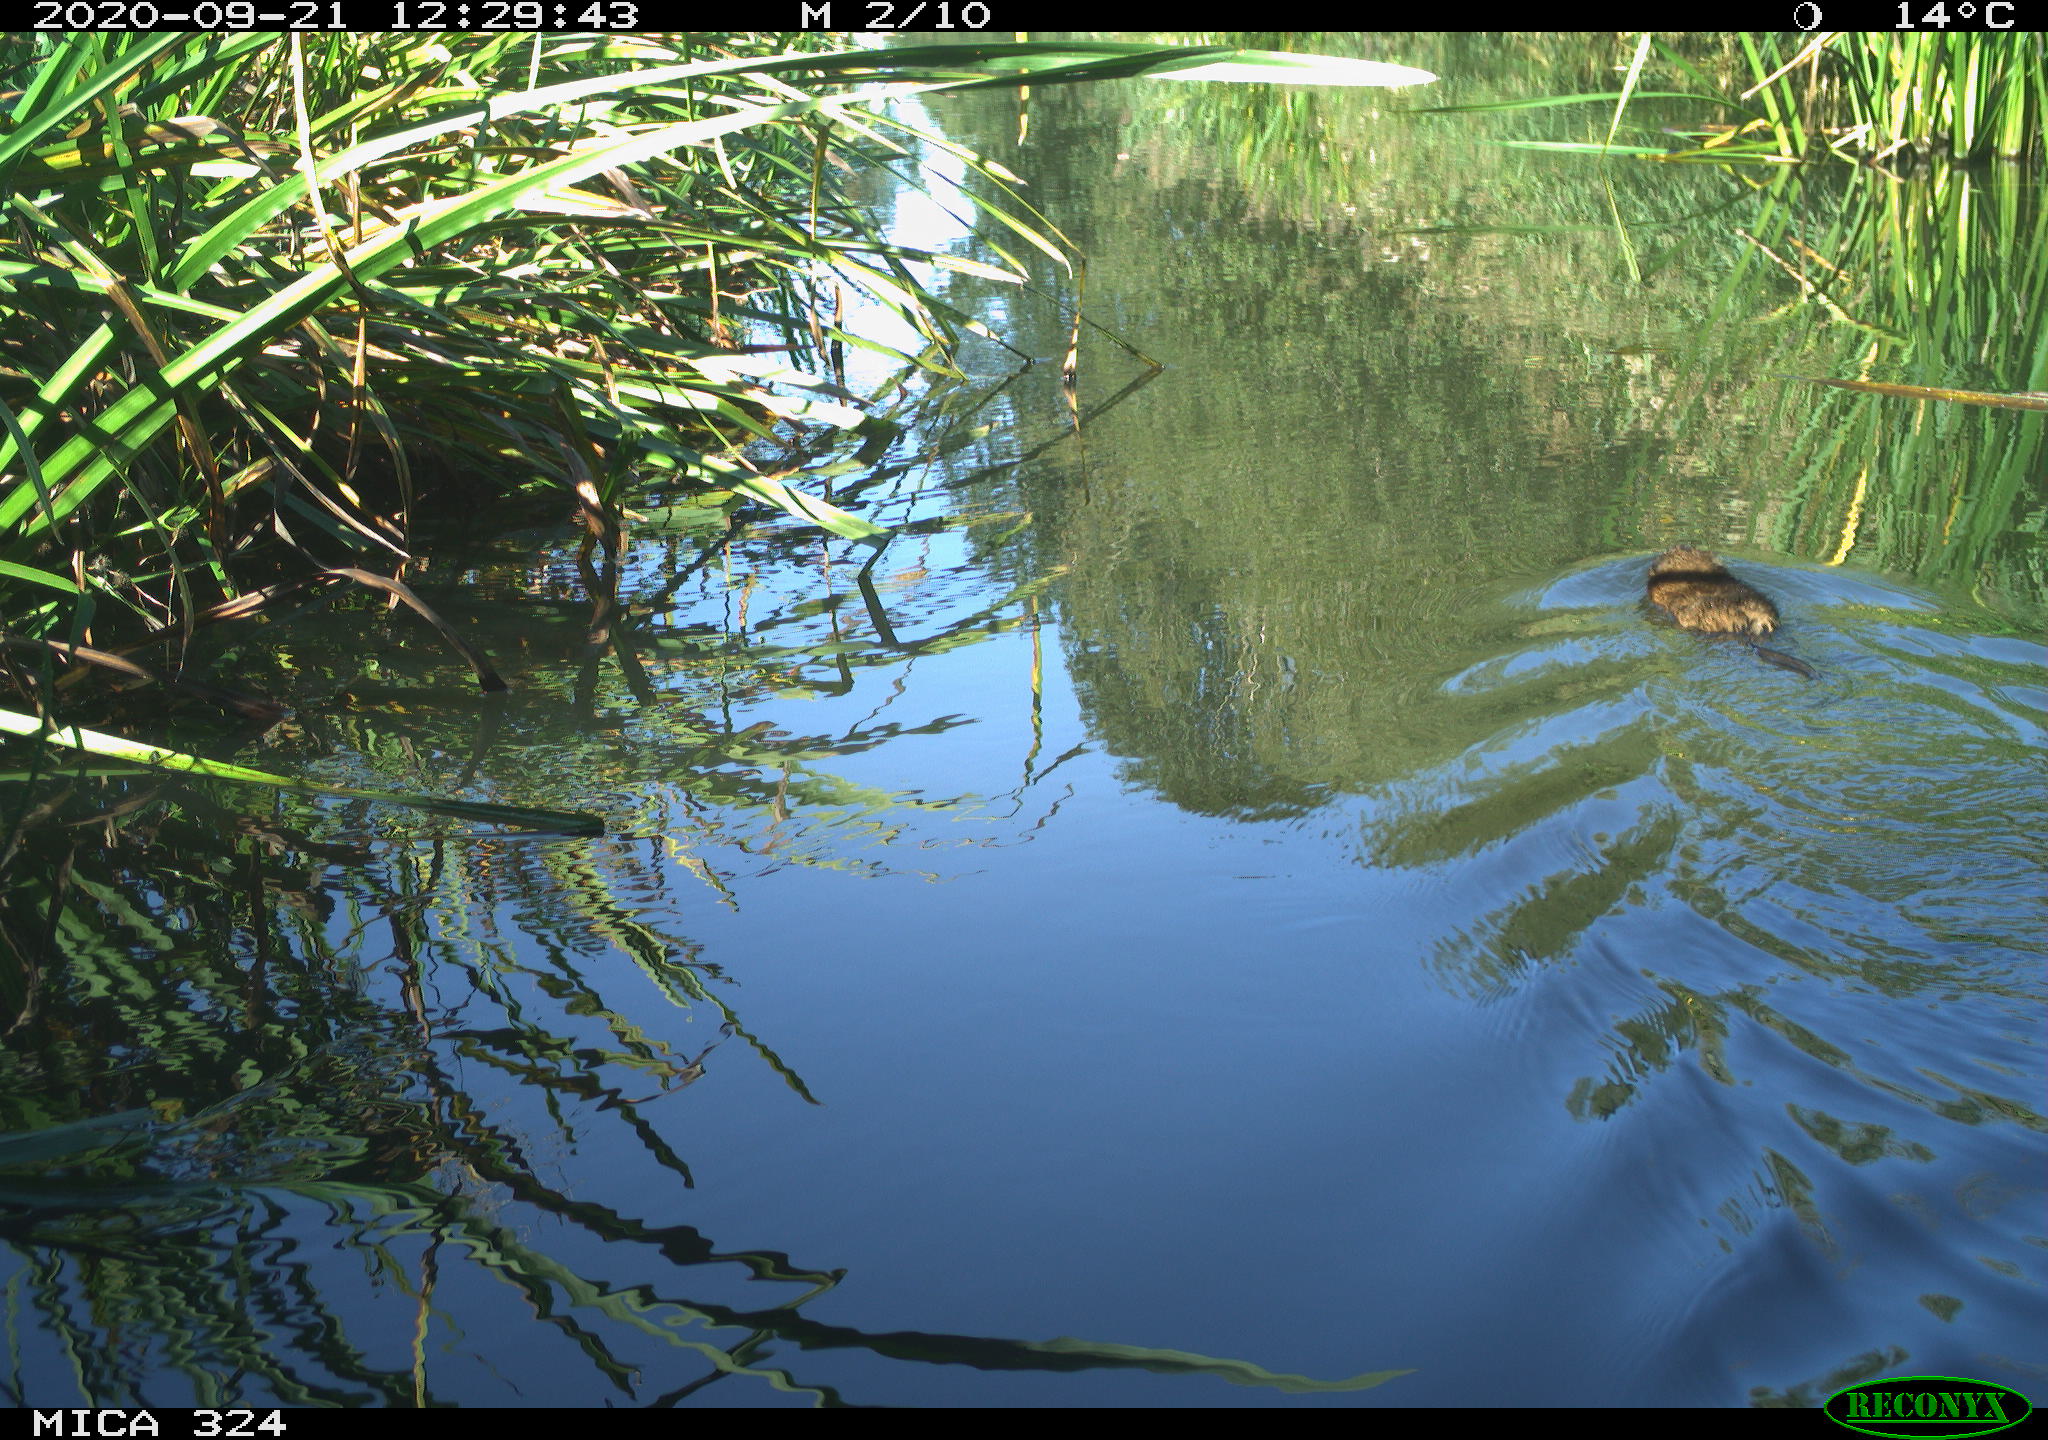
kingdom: Animalia
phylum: Chordata
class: Mammalia
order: Rodentia
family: Cricetidae
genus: Ondatra
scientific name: Ondatra zibethicus
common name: Muskrat
